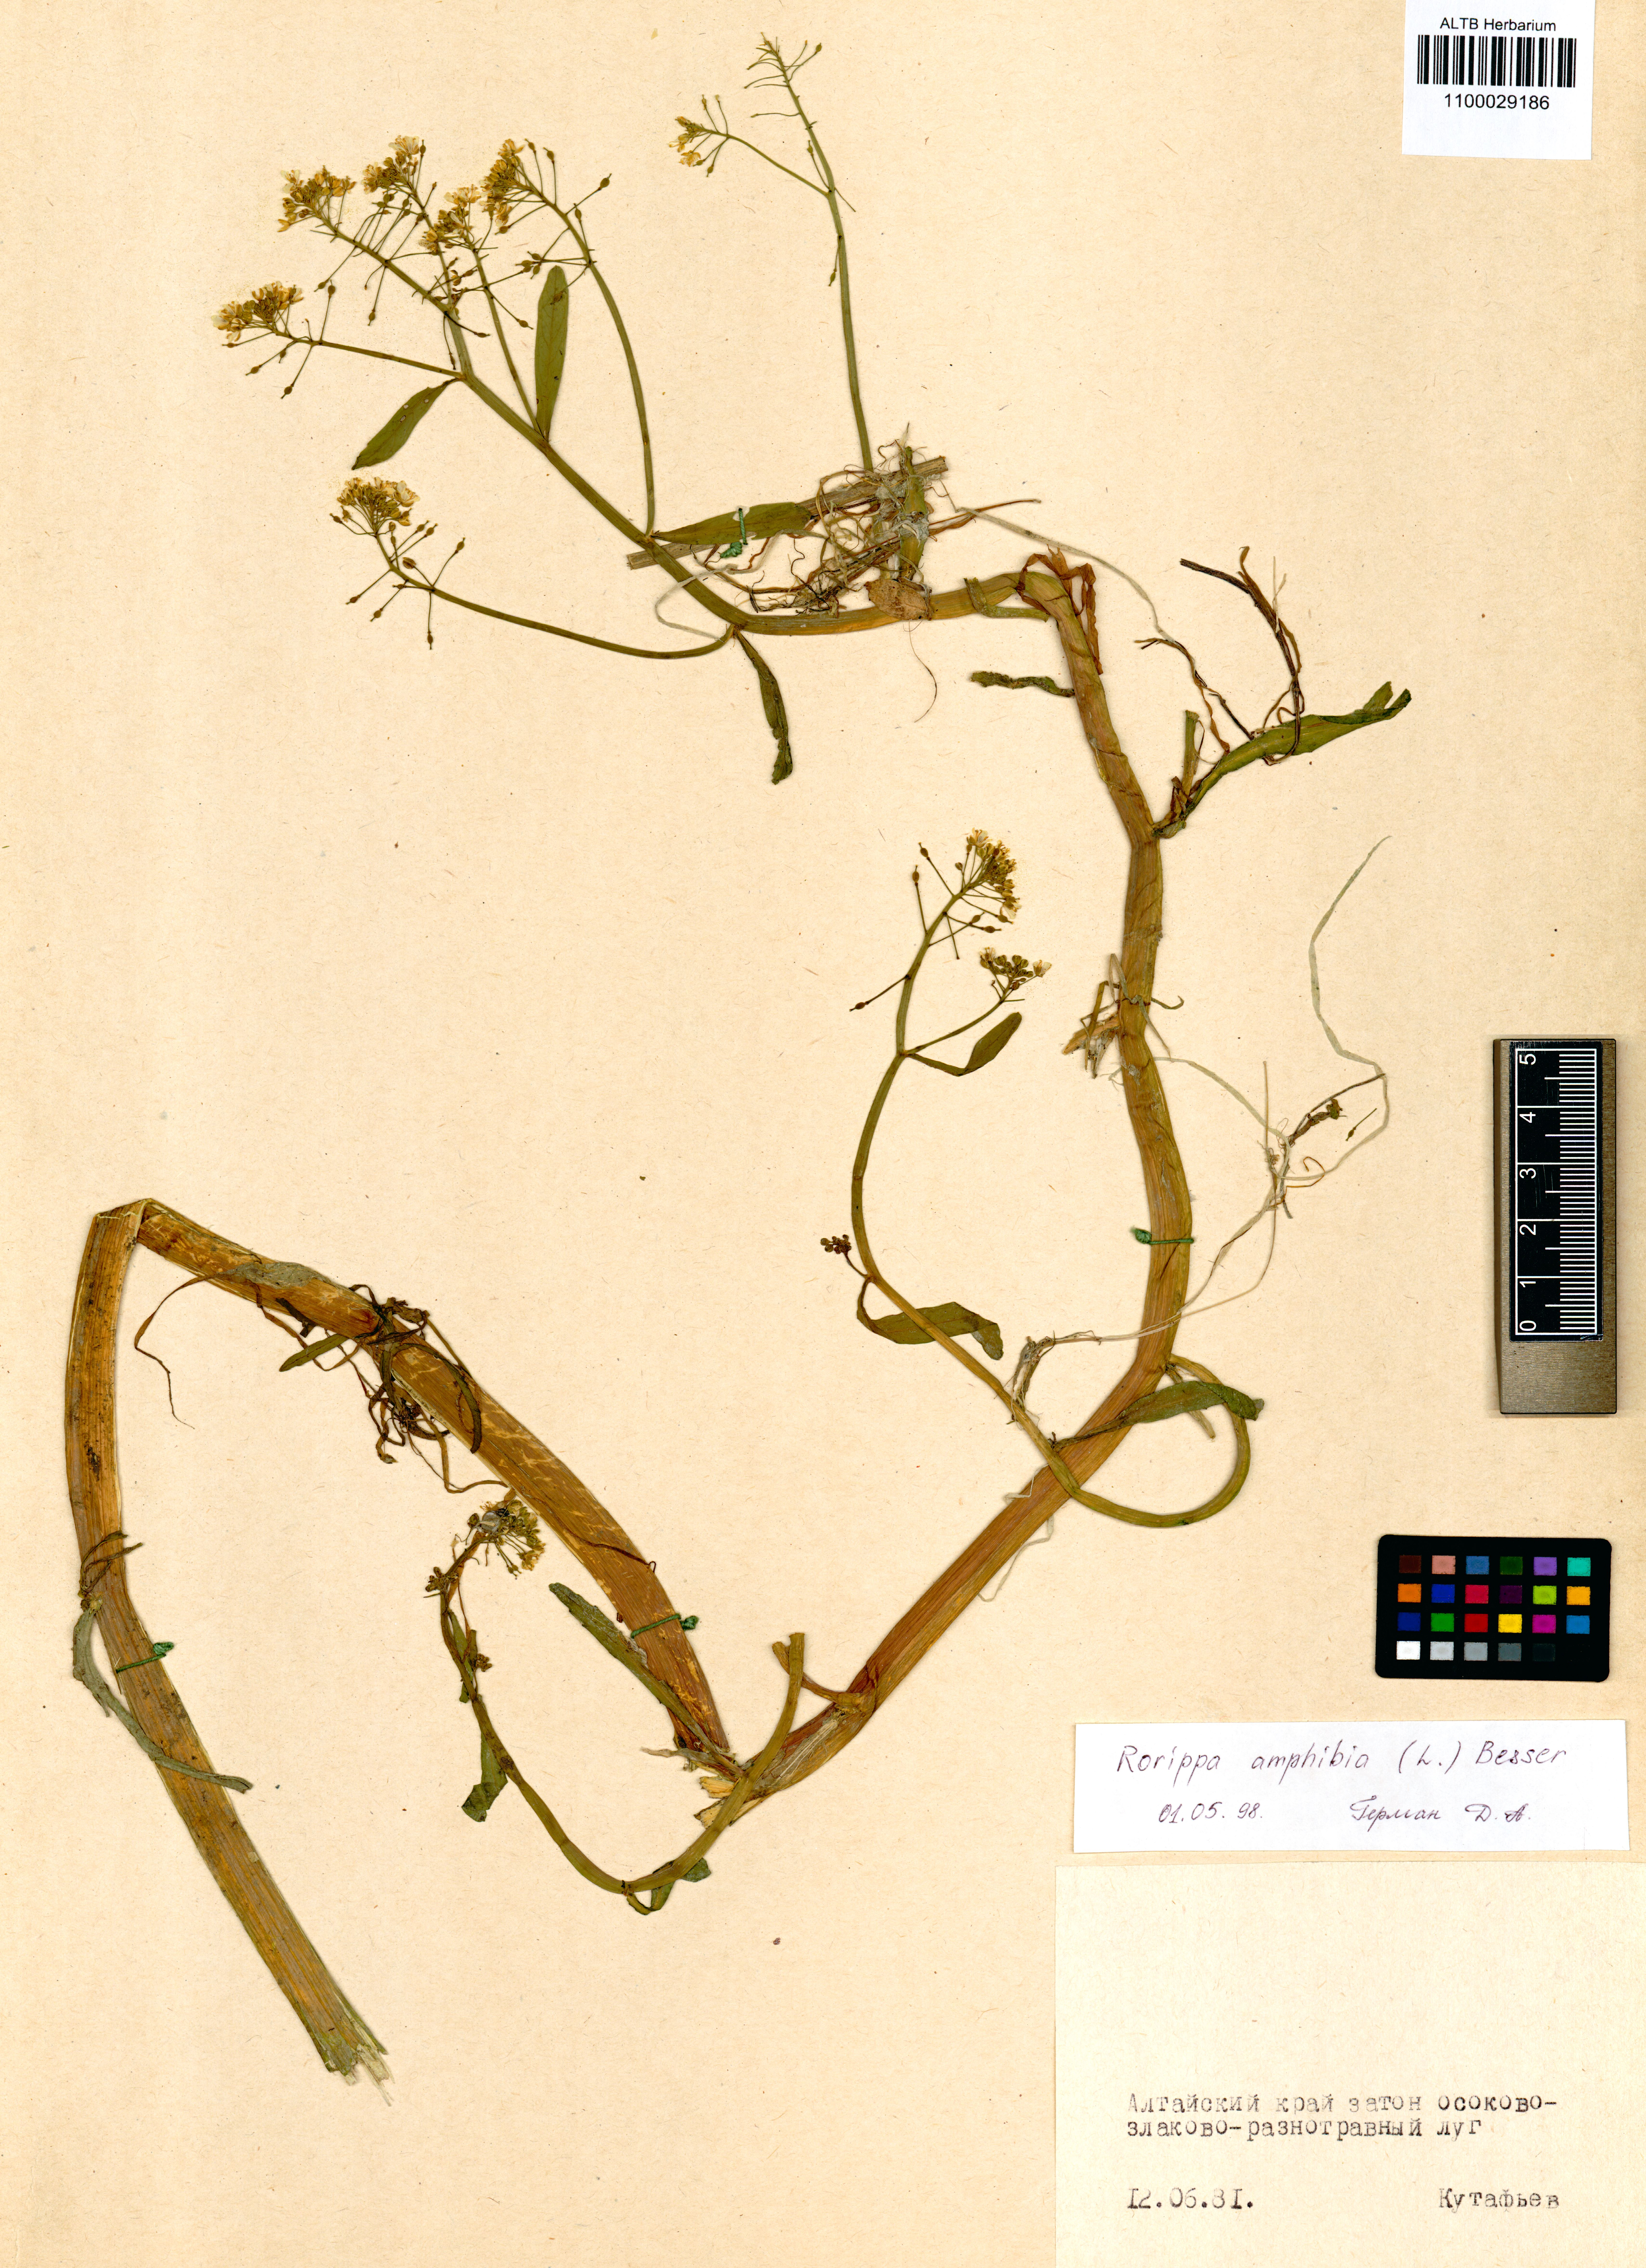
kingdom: Plantae
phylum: Tracheophyta
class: Magnoliopsida
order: Brassicales
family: Brassicaceae
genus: Rorippa
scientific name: Rorippa amphibia
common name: Great yellow-cress
